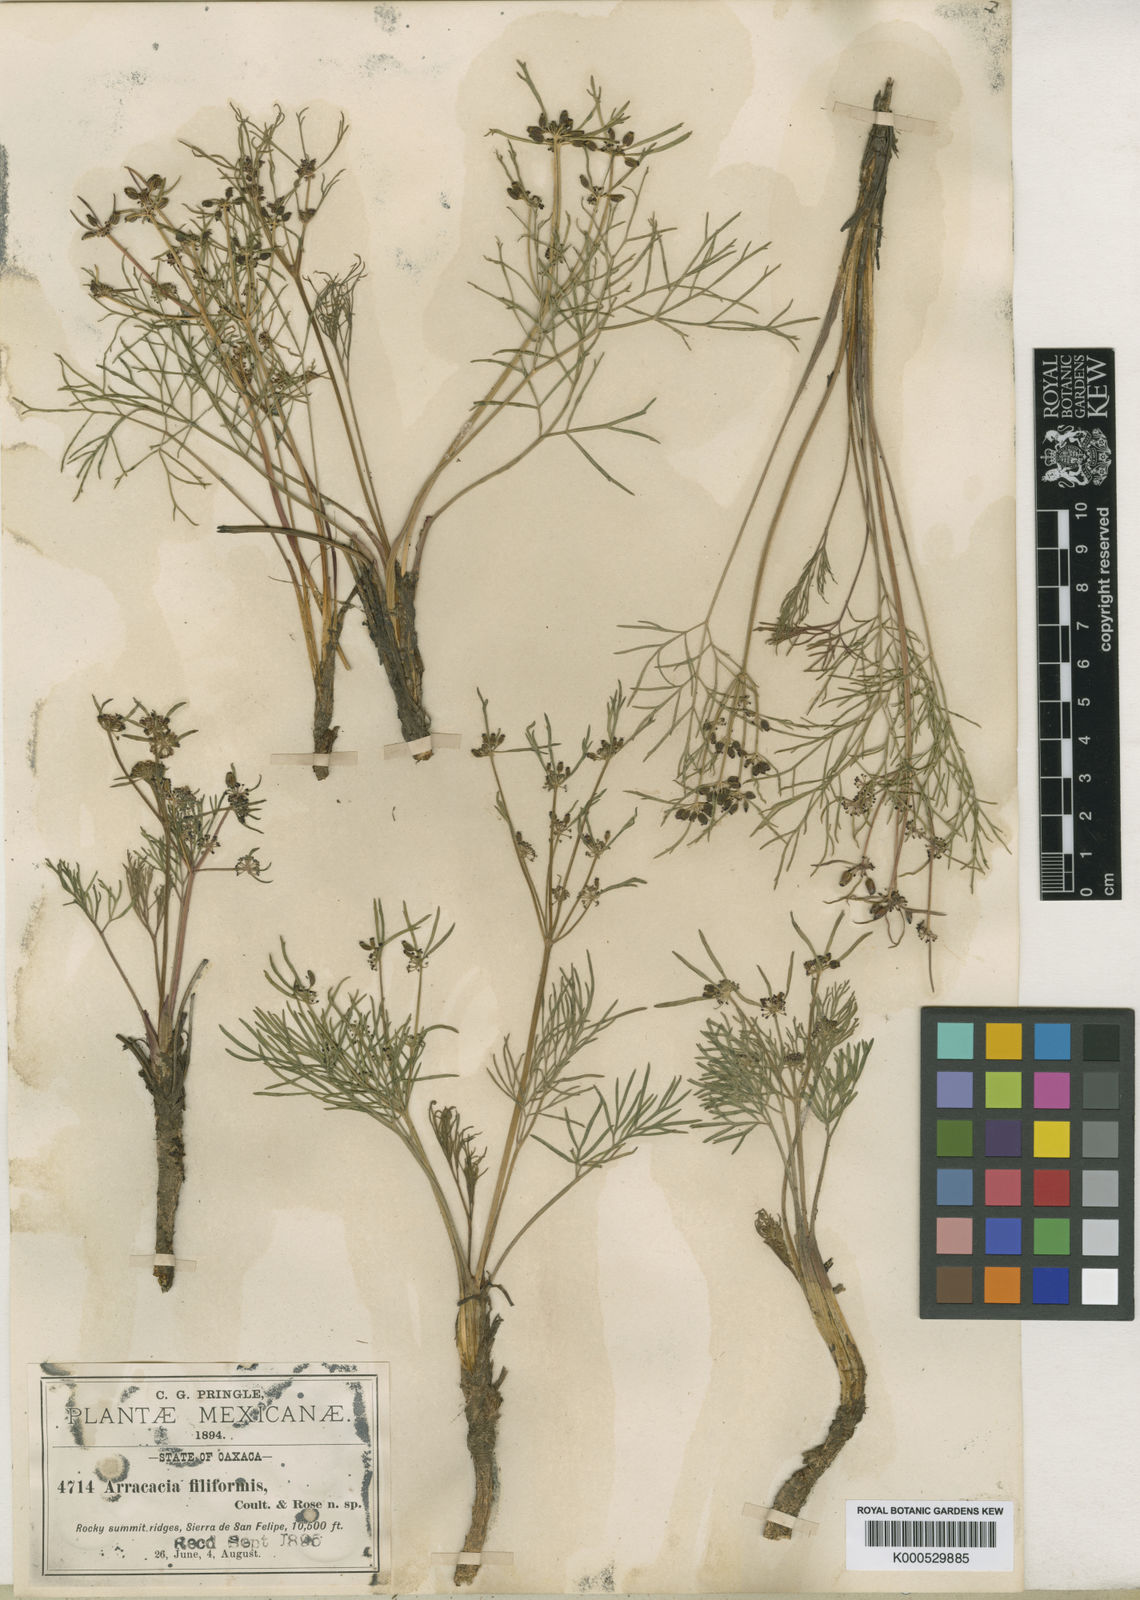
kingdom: Plantae
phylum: Tracheophyta
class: Magnoliopsida
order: Apiales
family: Apiaceae
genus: Tauschia
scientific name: Tauschia filiformis
